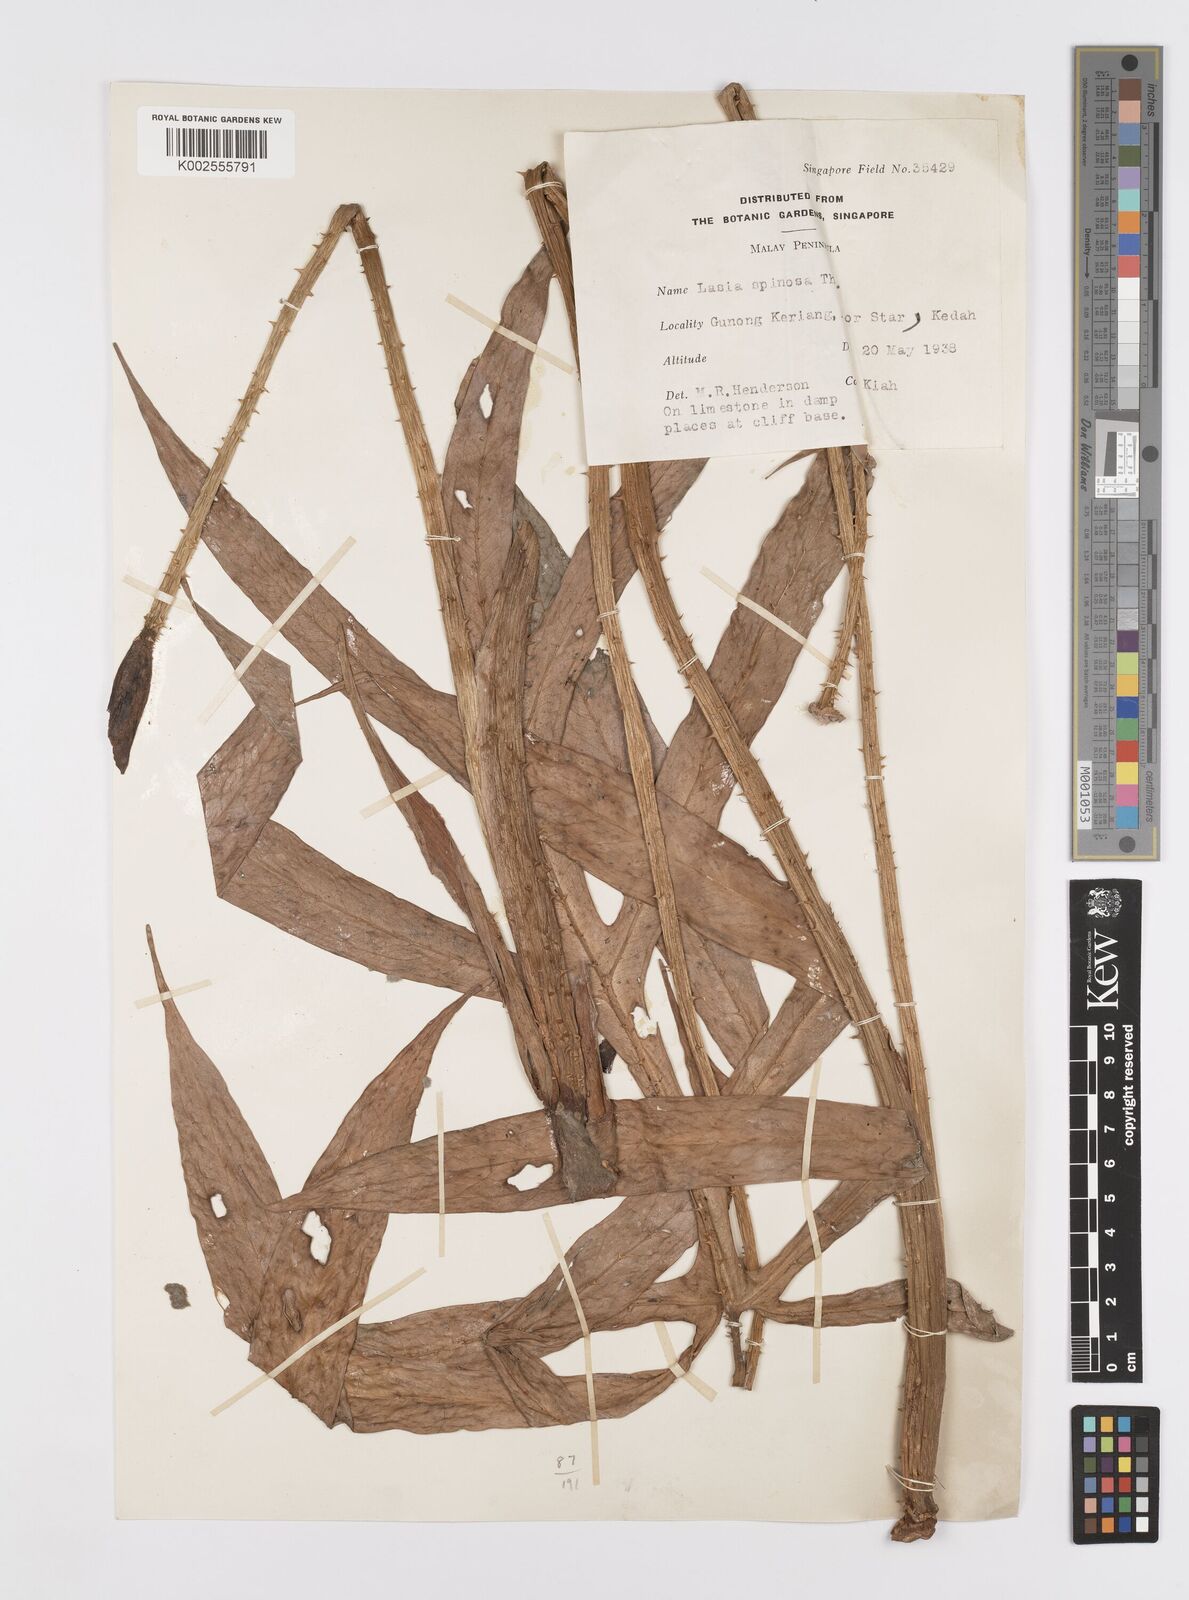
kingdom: Plantae
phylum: Tracheophyta
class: Liliopsida
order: Alismatales
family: Araceae
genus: Lasia
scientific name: Lasia spinosa
